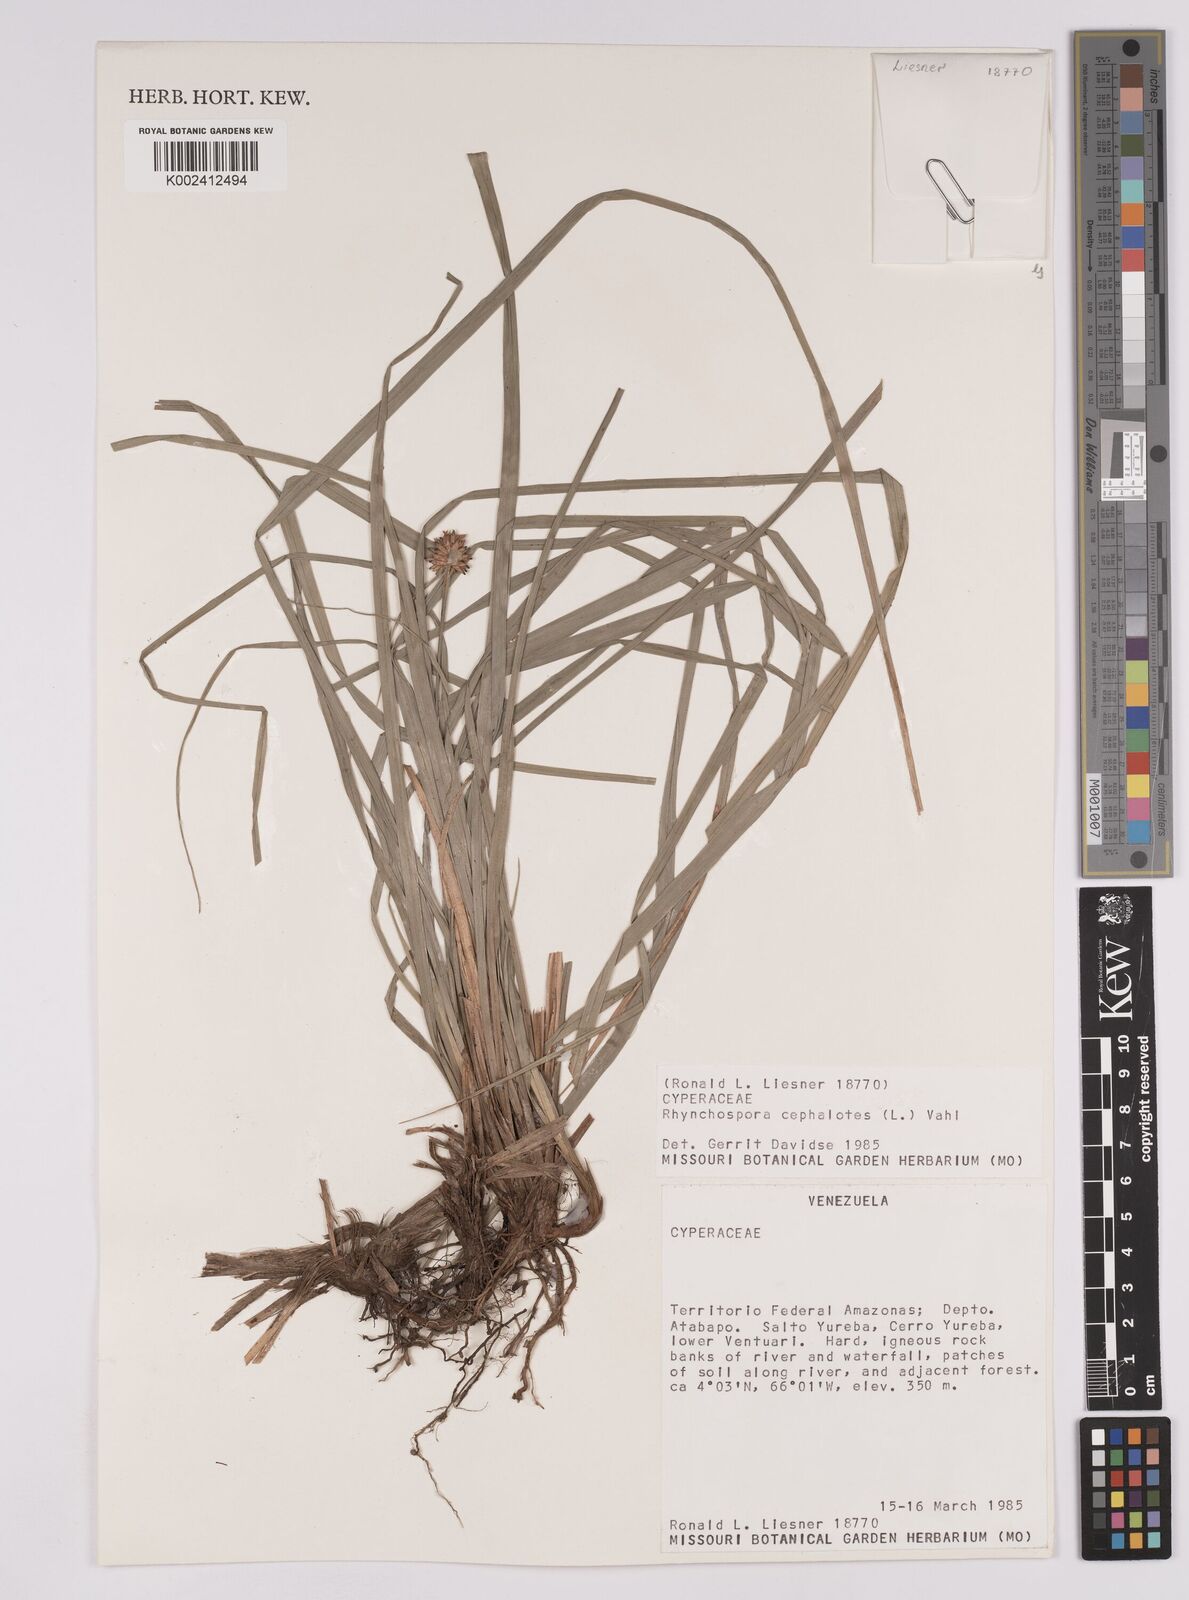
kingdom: Plantae
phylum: Tracheophyta
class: Liliopsida
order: Poales
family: Cyperaceae
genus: Rhynchospora
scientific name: Rhynchospora cephalotes
